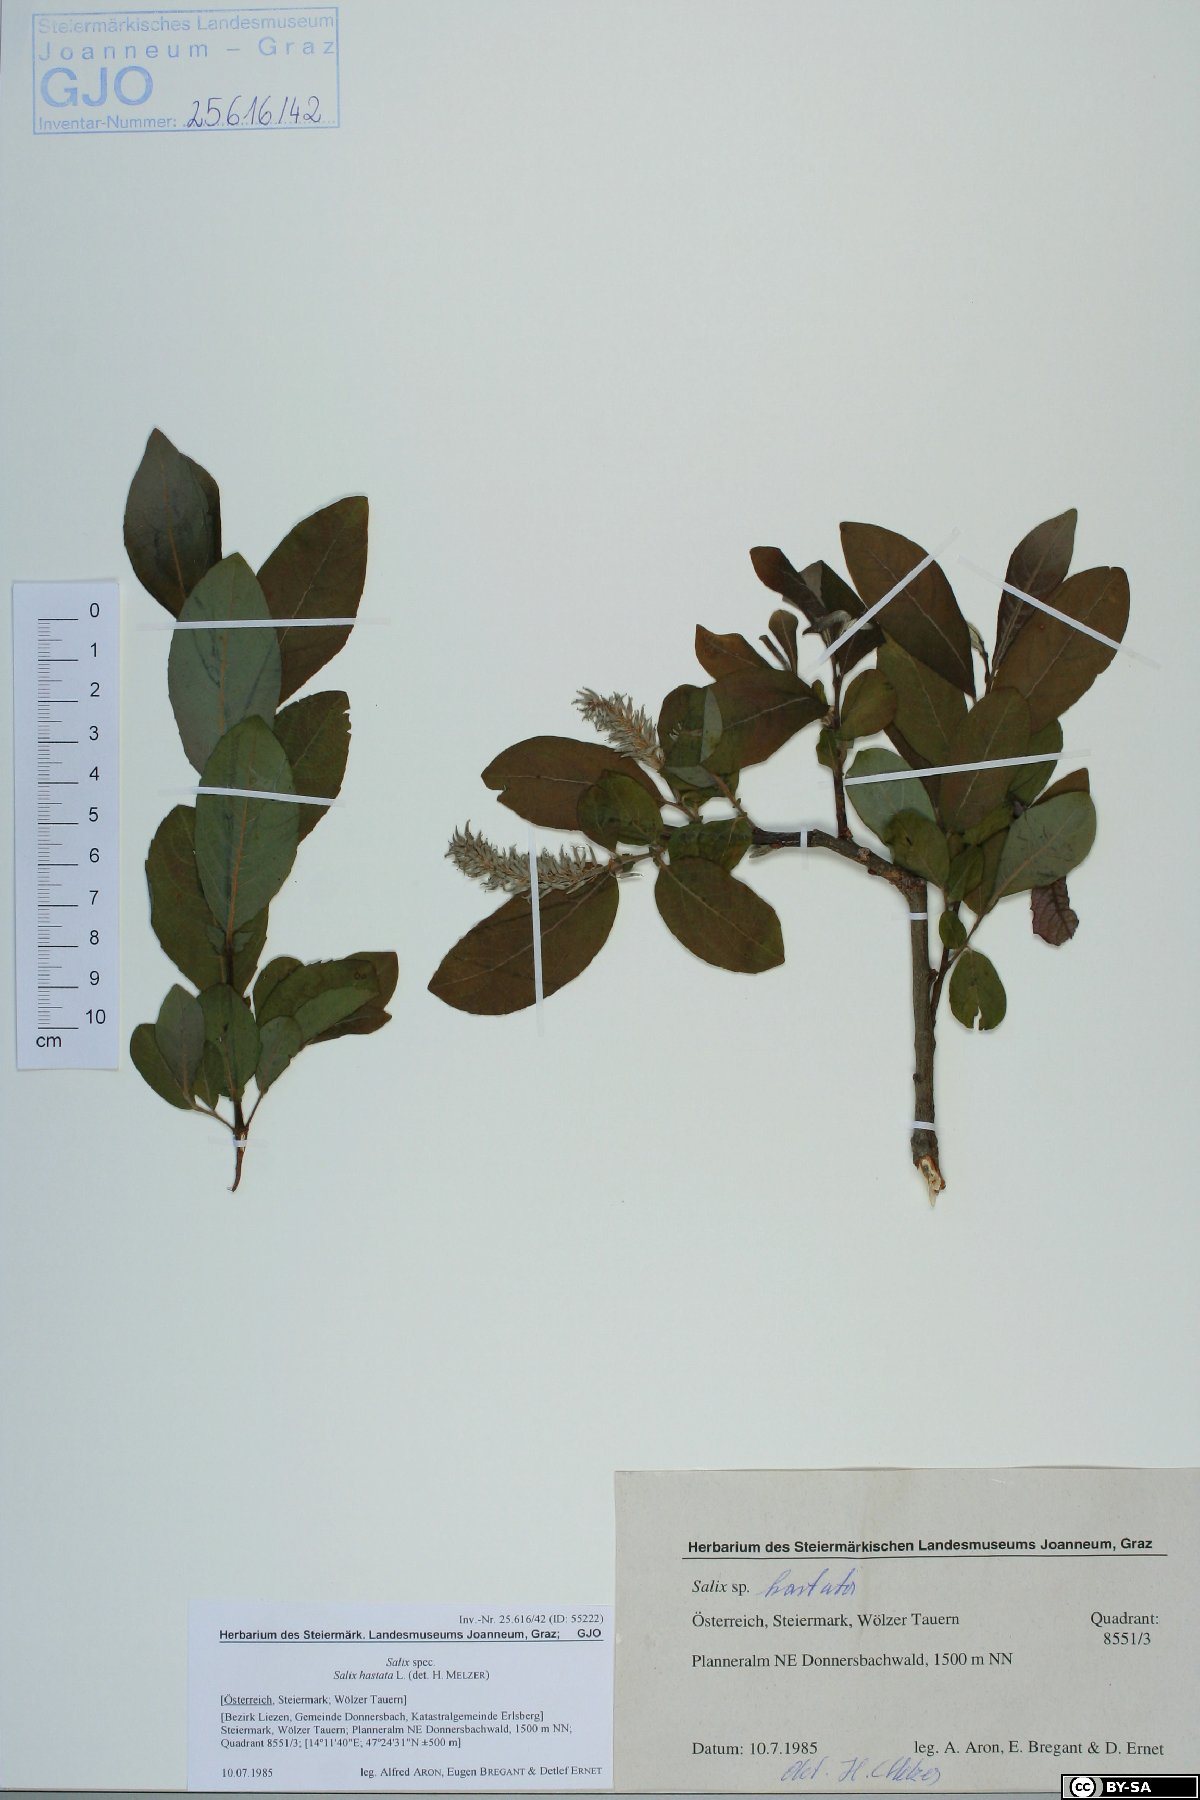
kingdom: Plantae
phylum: Tracheophyta
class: Magnoliopsida
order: Malpighiales
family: Salicaceae
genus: Salix
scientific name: Salix hastata
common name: Halberd willow
